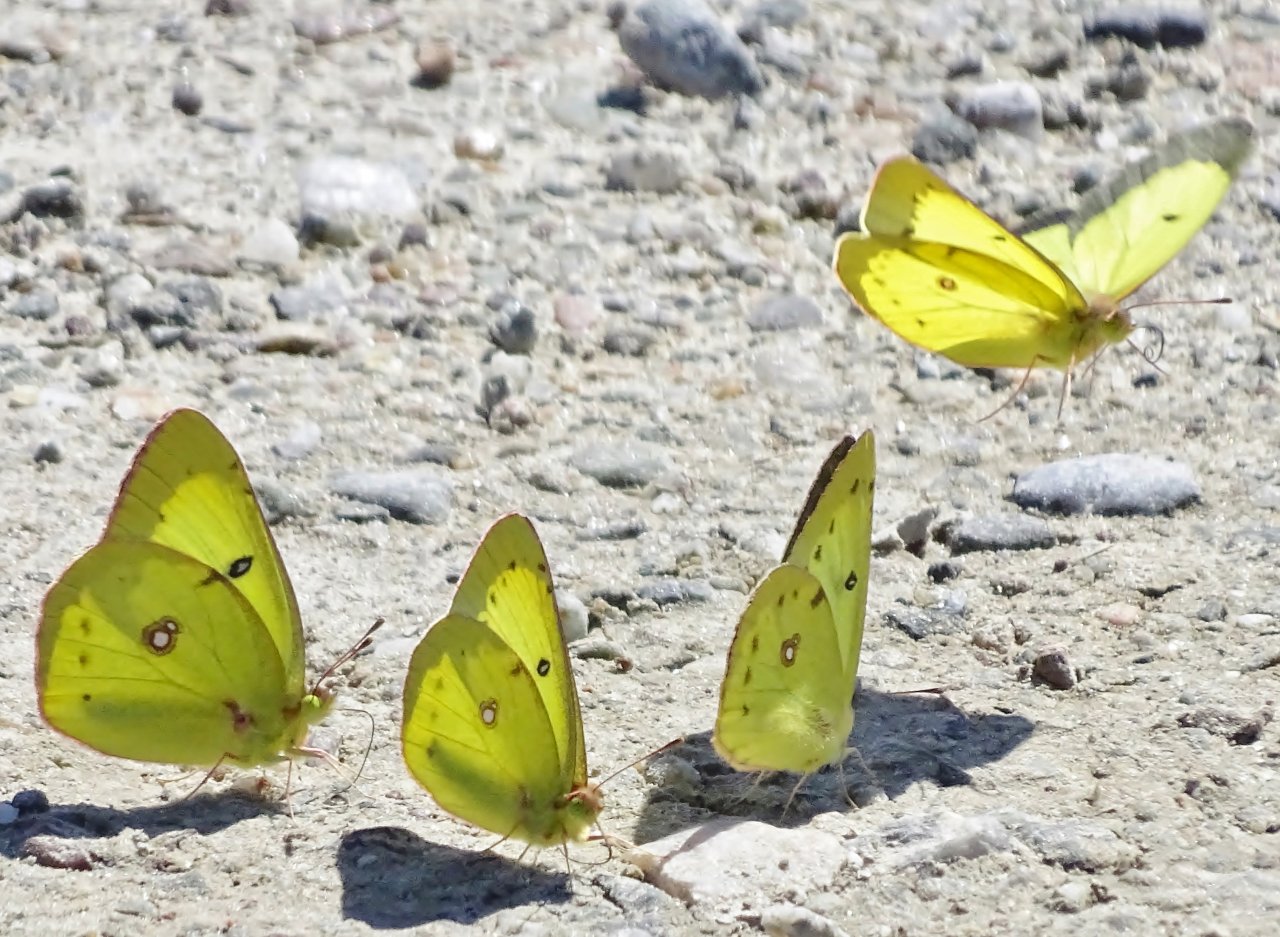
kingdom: Animalia
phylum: Arthropoda
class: Insecta
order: Lepidoptera
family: Pieridae
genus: Colias
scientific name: Colias philodice
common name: Clouded Sulphur
